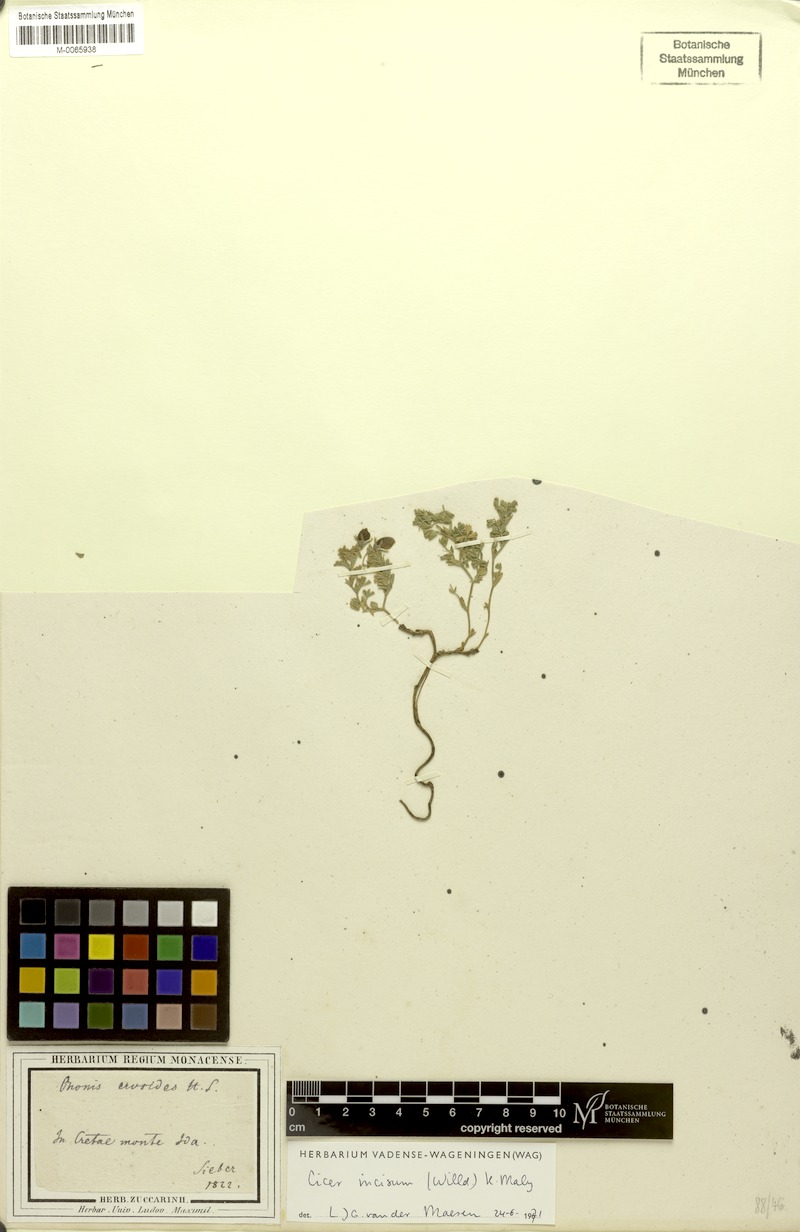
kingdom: Plantae
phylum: Tracheophyta
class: Magnoliopsida
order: Fabales
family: Fabaceae
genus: Cicer
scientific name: Cicer incisum
